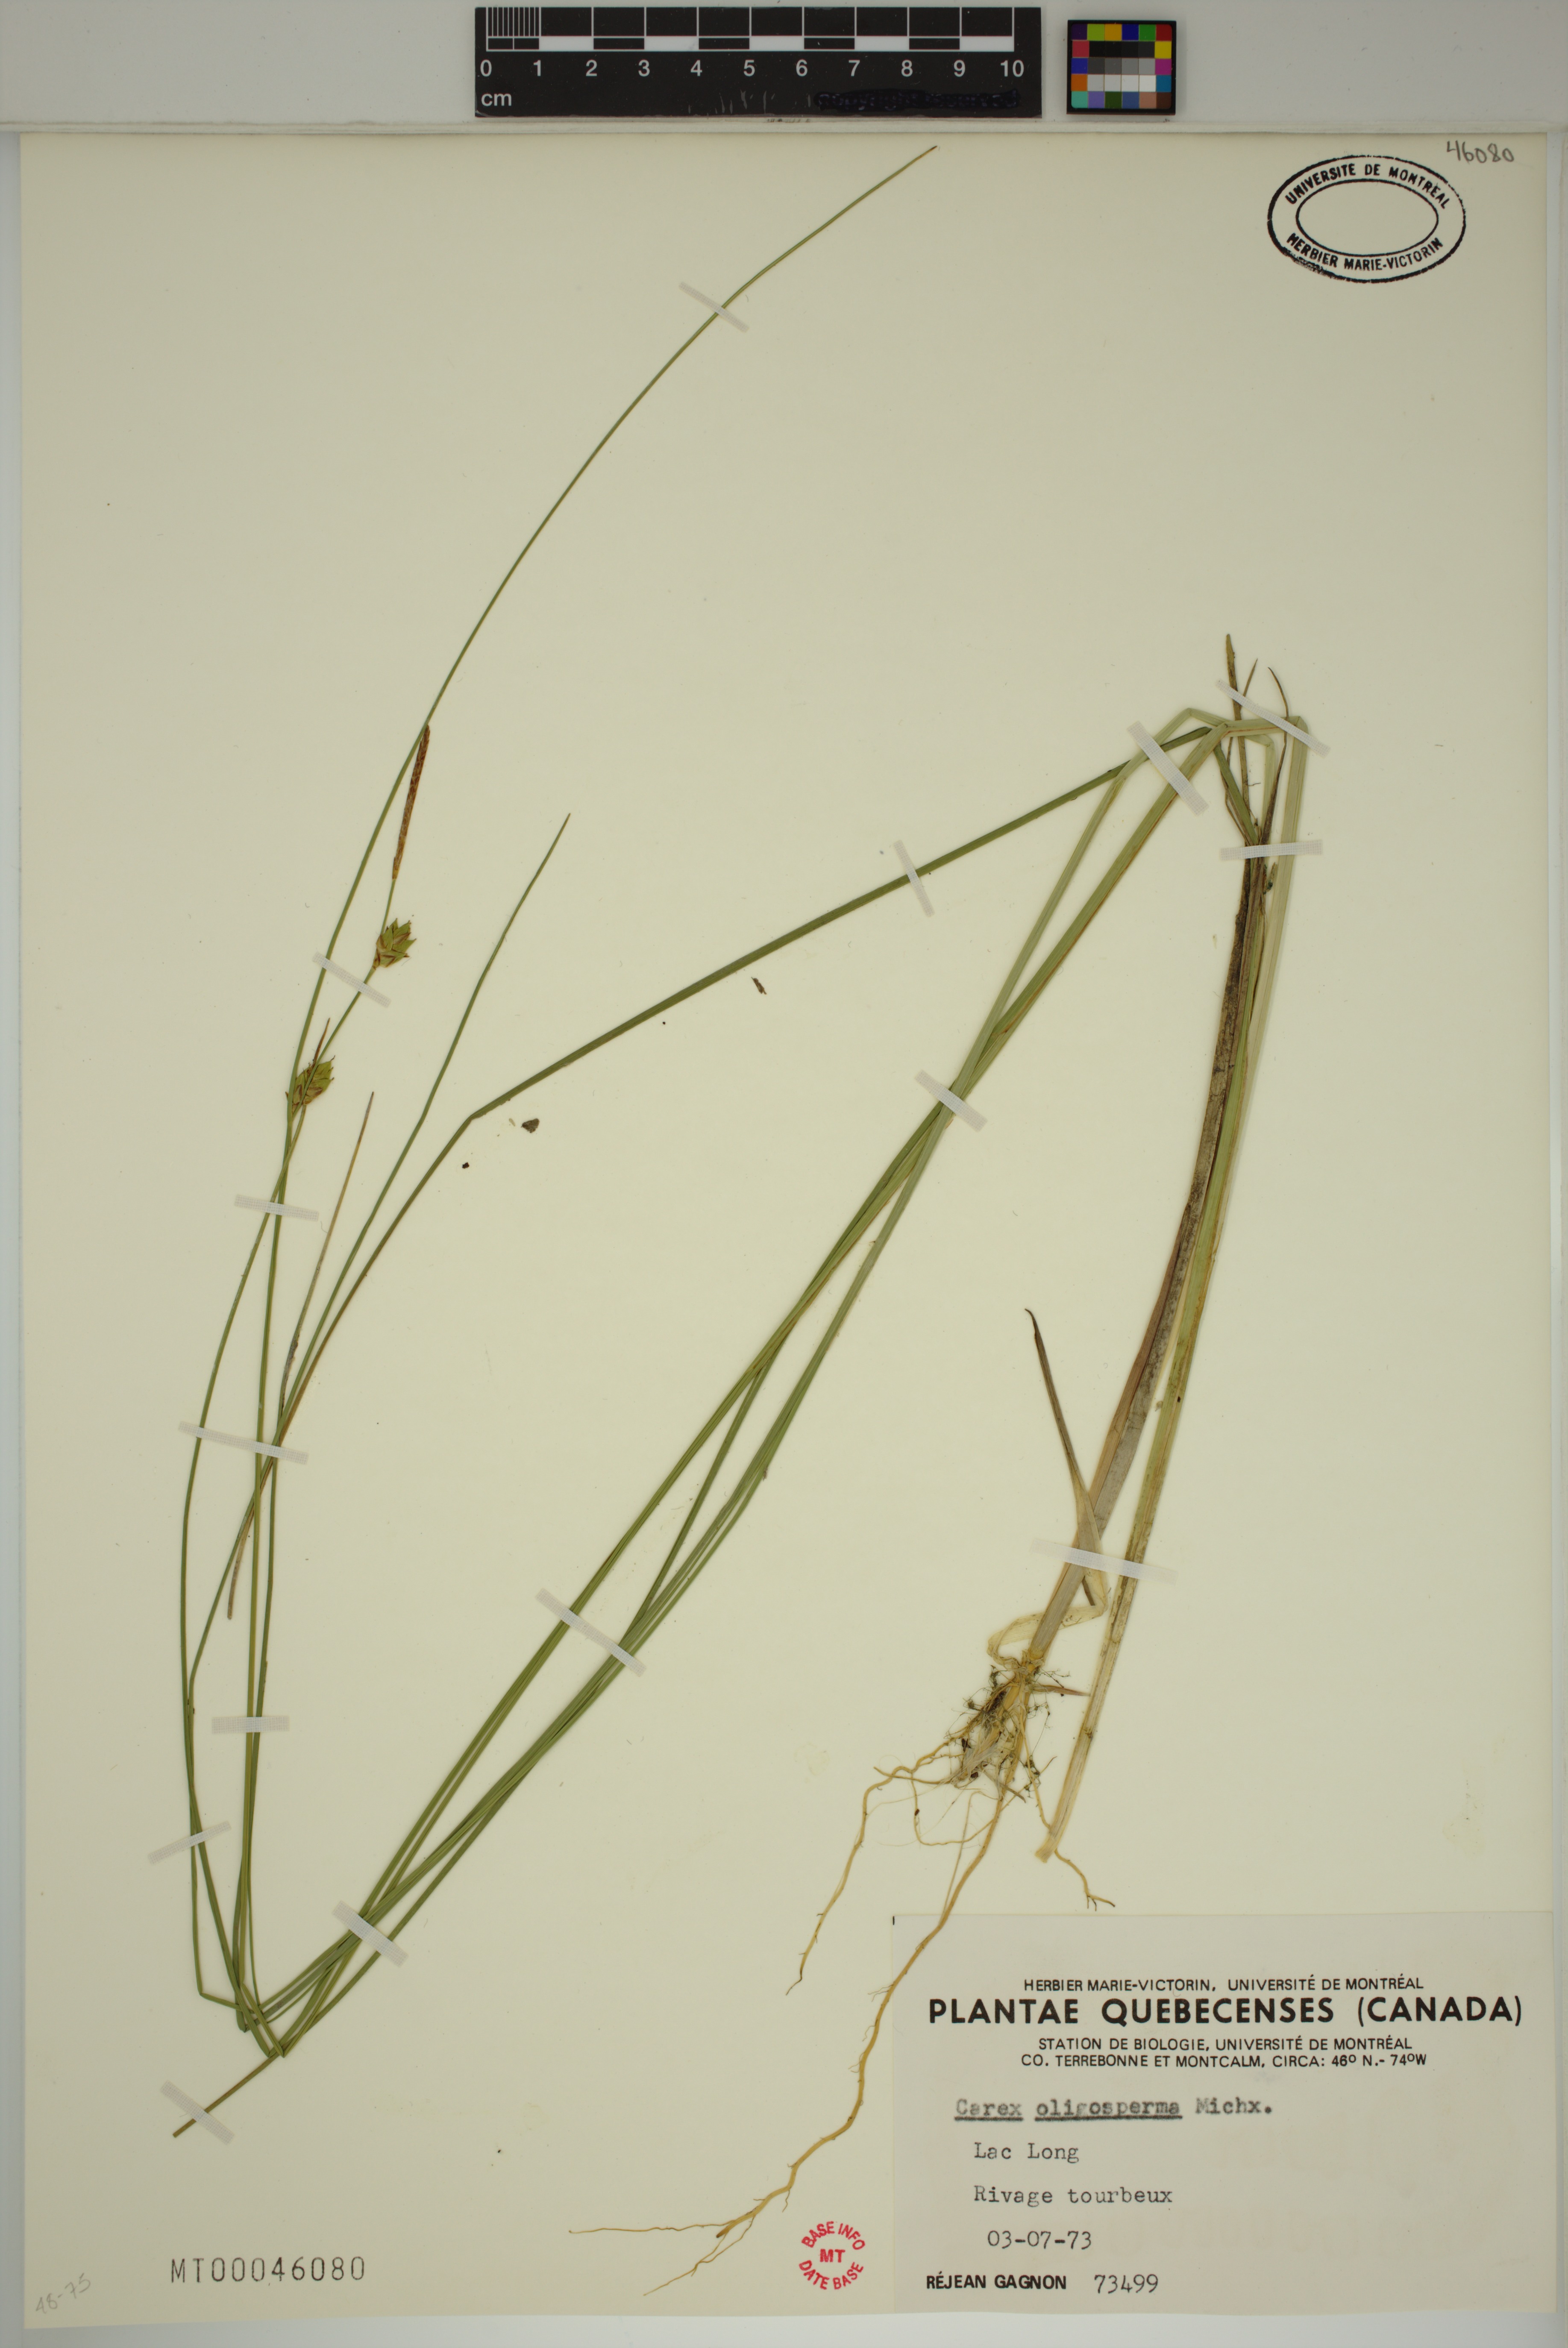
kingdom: Plantae
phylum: Tracheophyta
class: Liliopsida
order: Poales
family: Cyperaceae
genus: Carex
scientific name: Carex oligosperma
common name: Few-seed sedge
